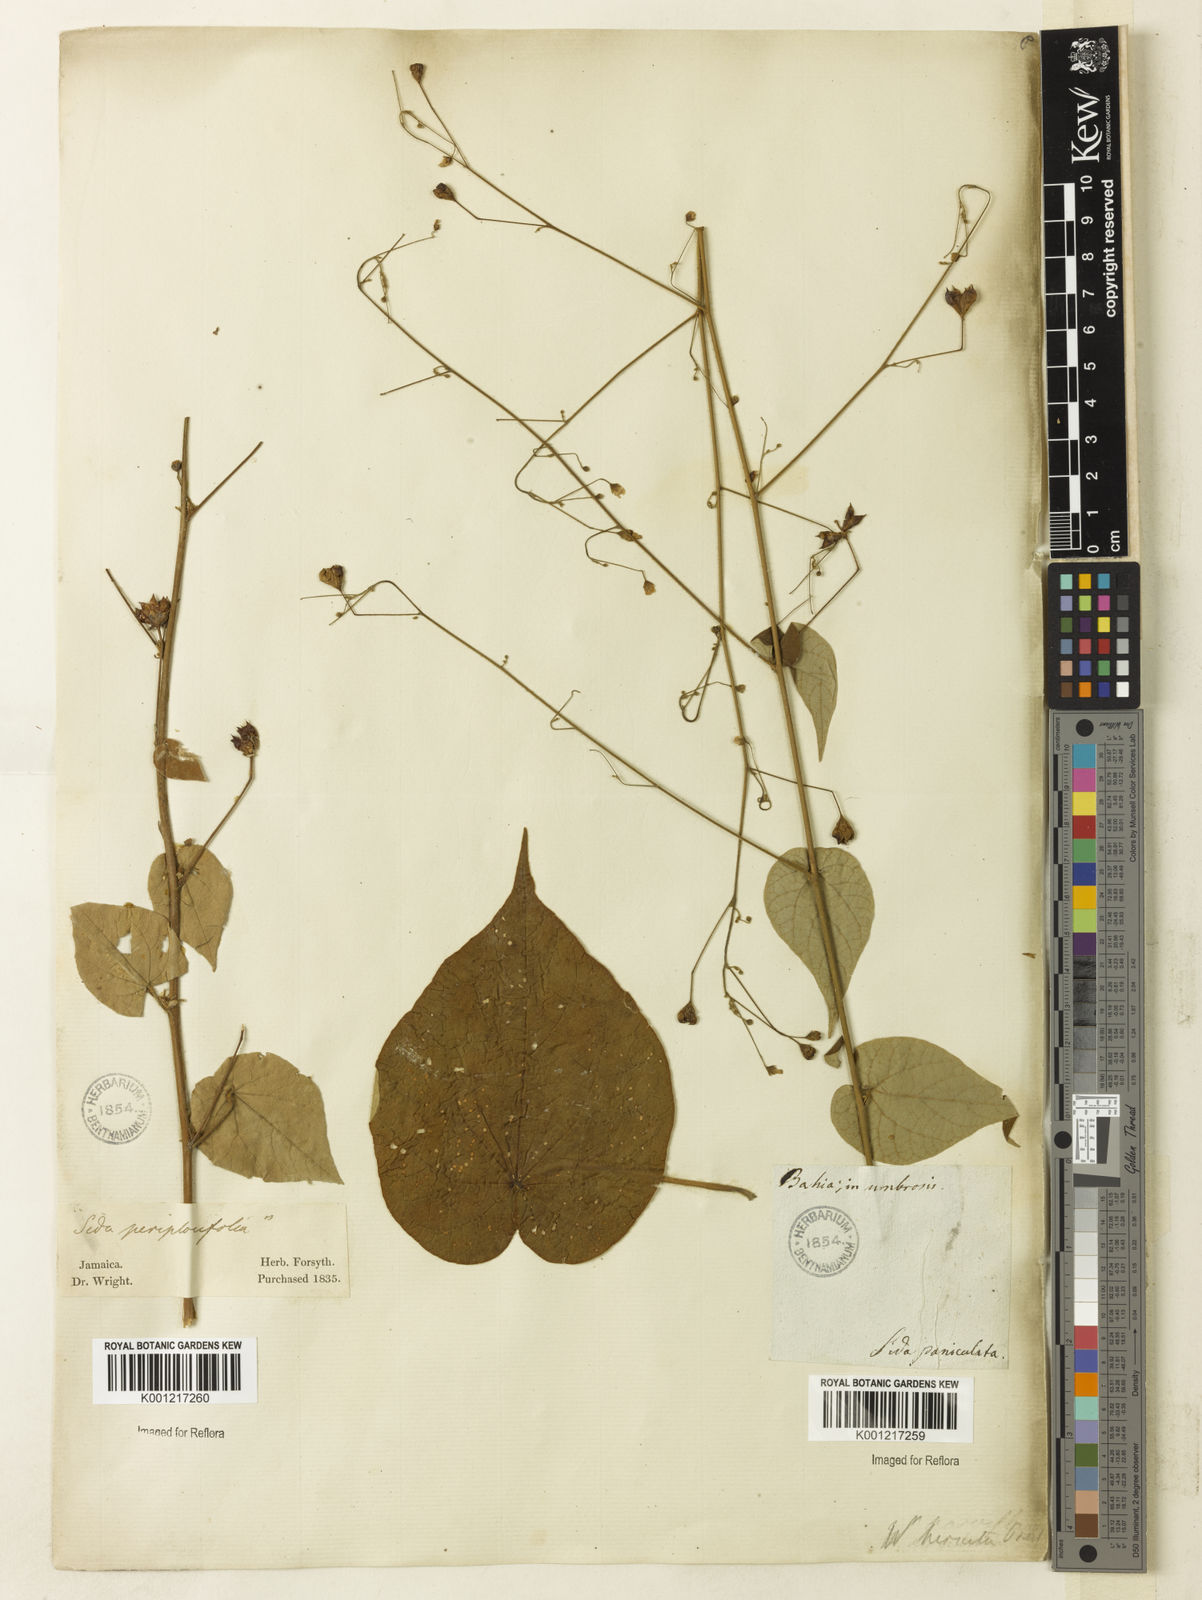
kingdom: Plantae
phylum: Tracheophyta
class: Magnoliopsida
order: Malvales
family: Malvaceae
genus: Wissadula
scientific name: Wissadula amplissima
